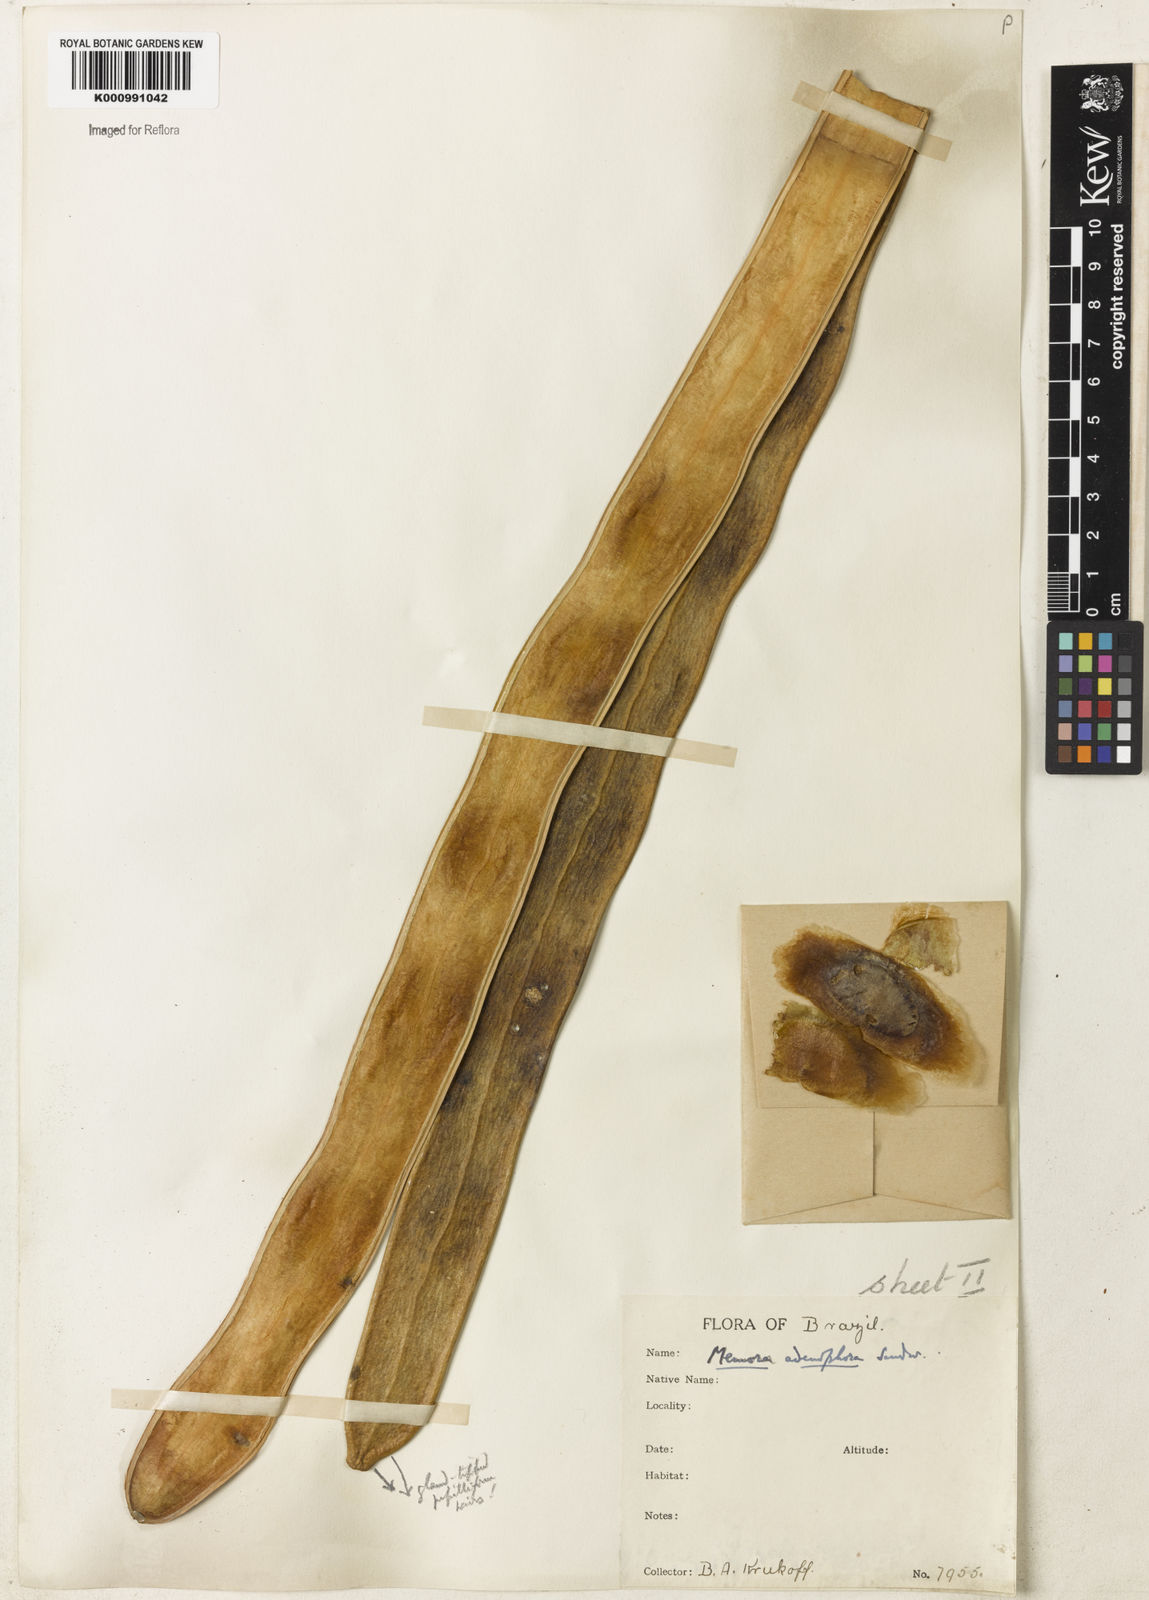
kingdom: Plantae
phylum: Tracheophyta
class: Magnoliopsida
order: Lamiales
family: Bignoniaceae
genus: Adenocalymma
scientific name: Adenocalymma adenophorum
